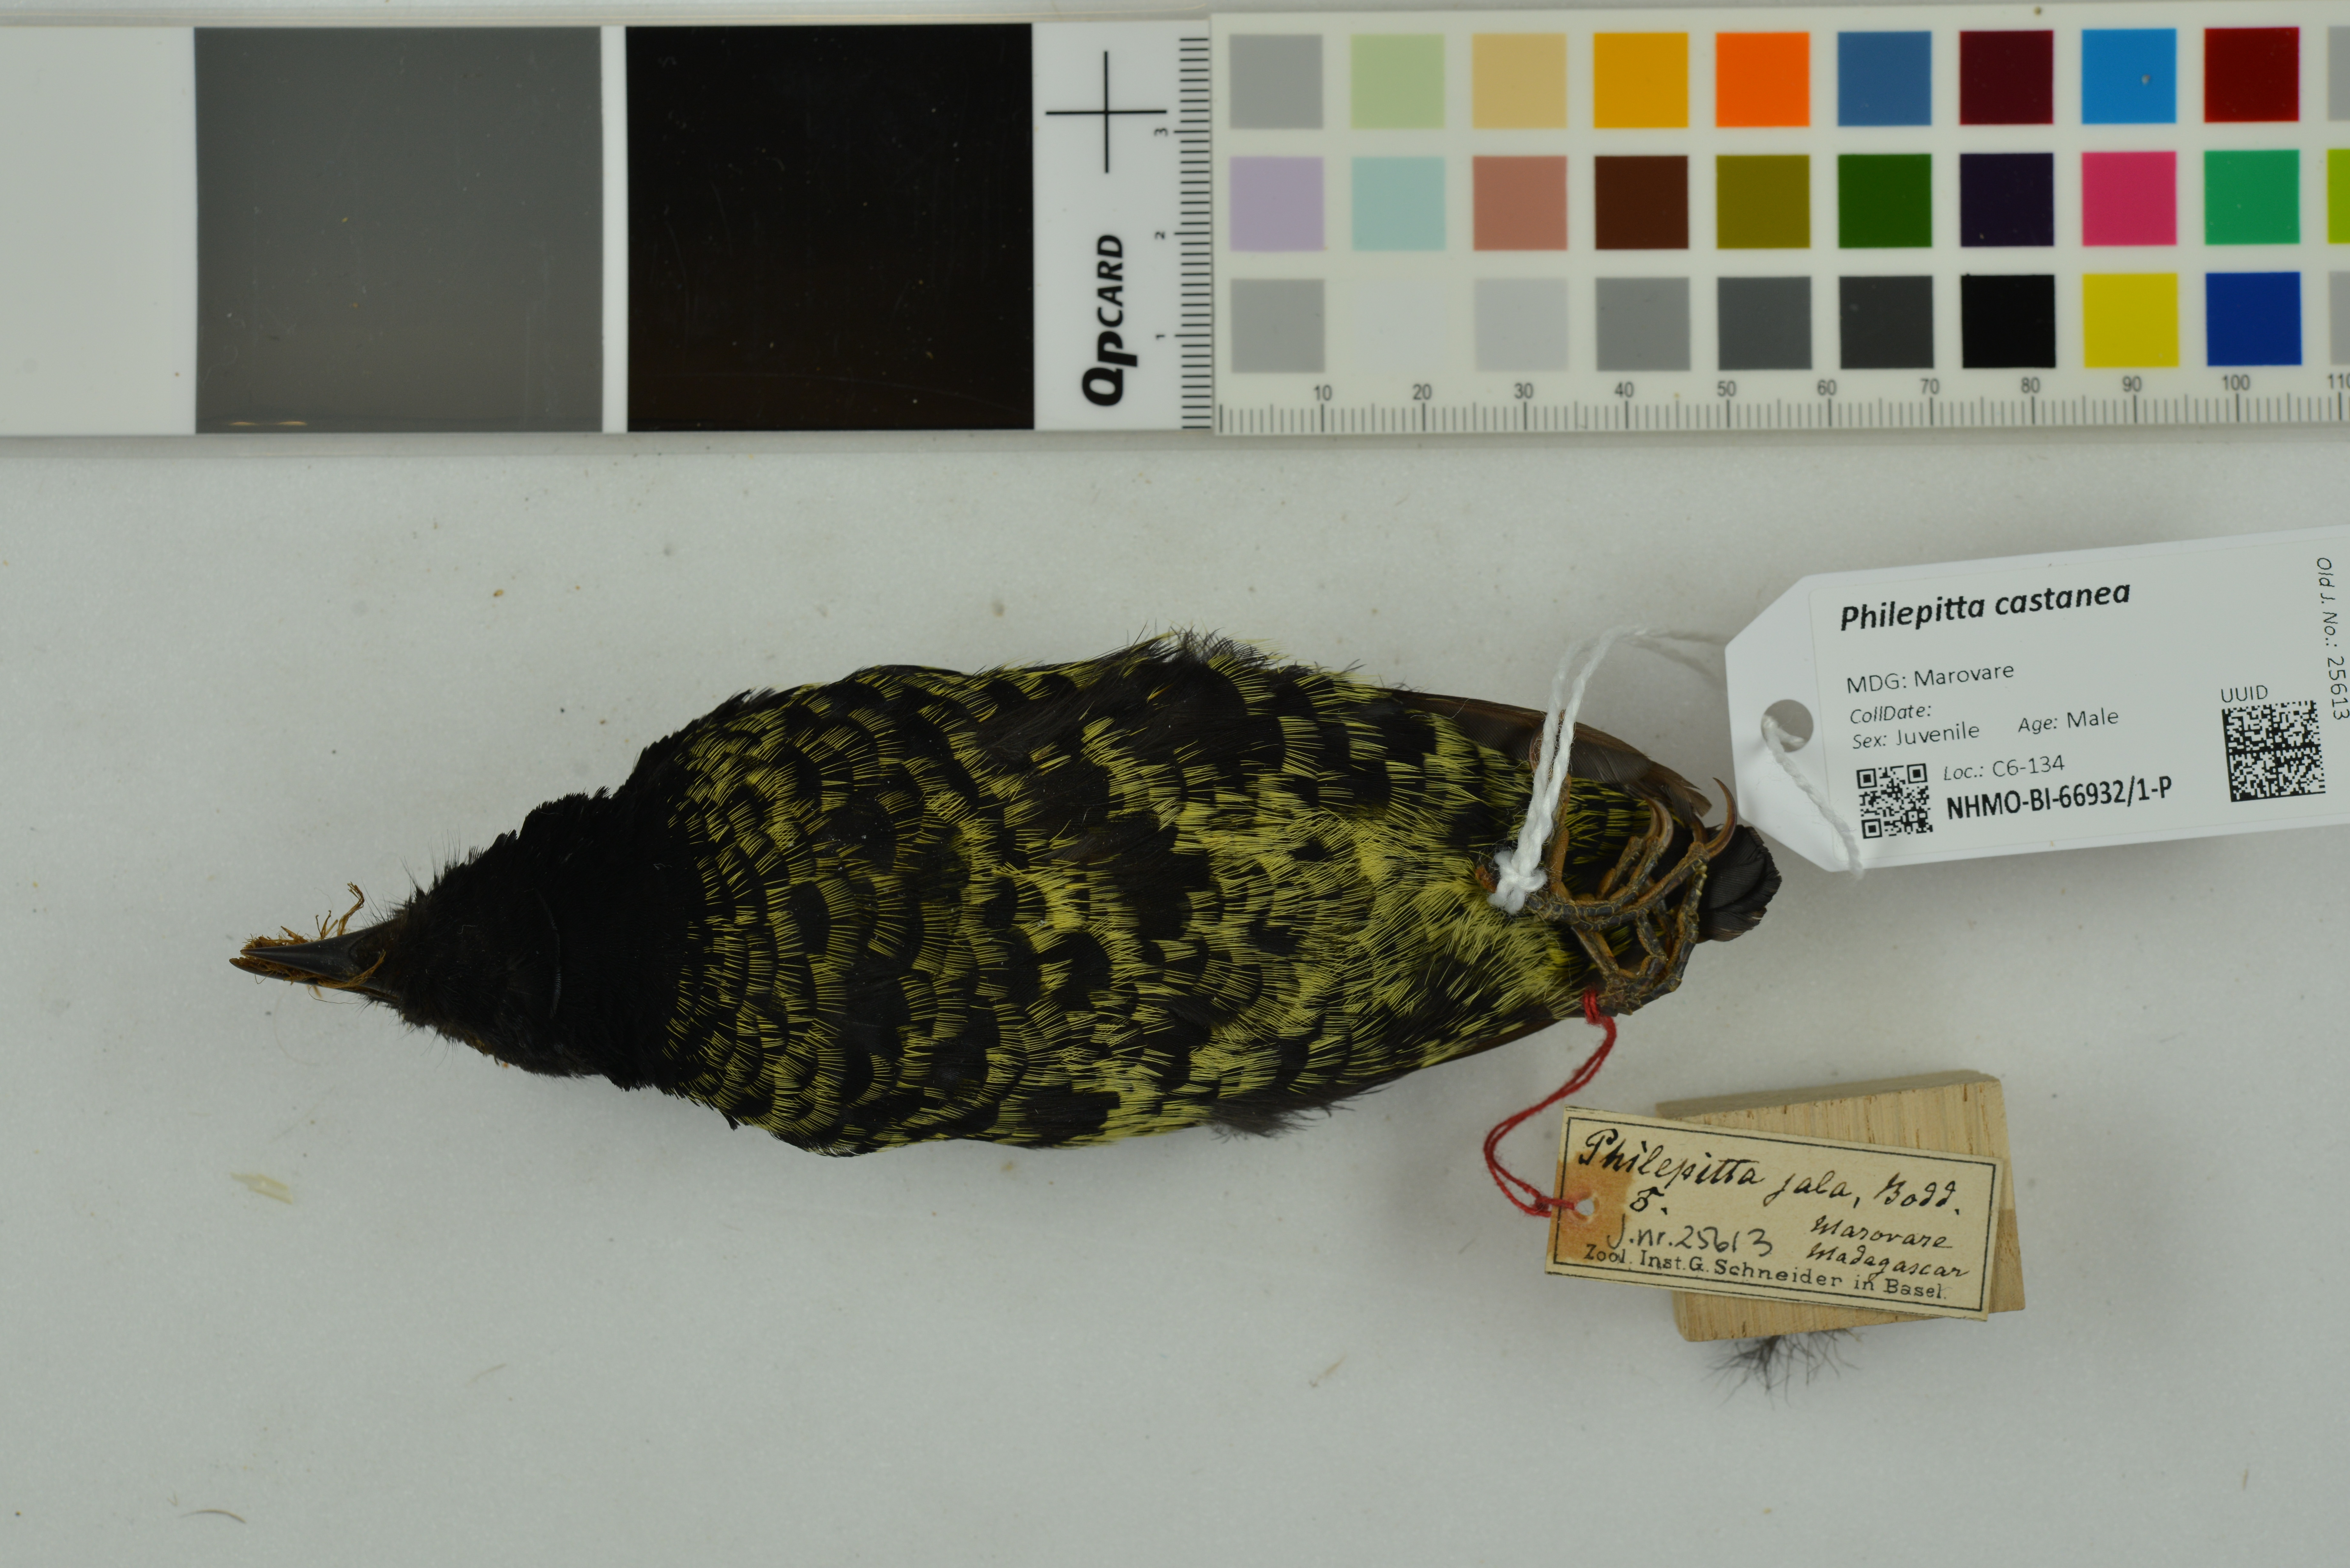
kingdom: Animalia
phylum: Chordata
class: Aves
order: Passeriformes
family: Philepittidae
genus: Philepitta
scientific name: Philepitta castanea
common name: Velvet asity
